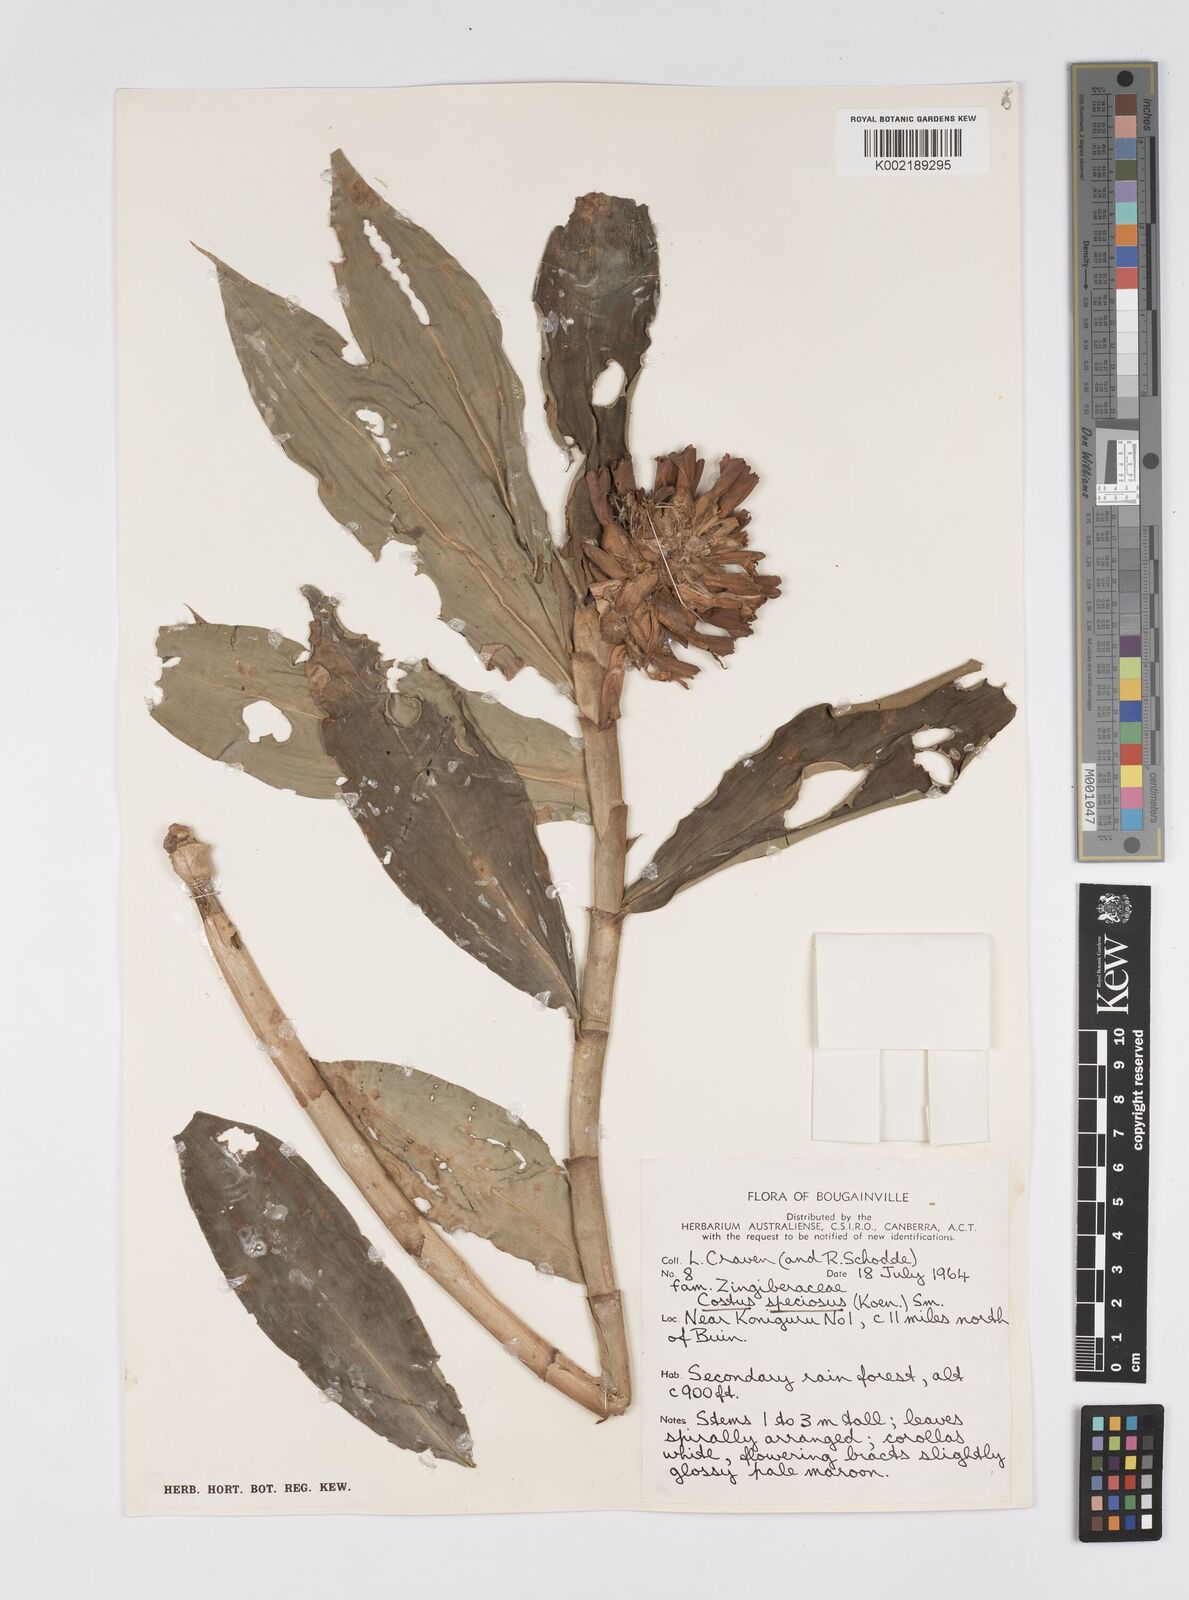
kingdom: Plantae
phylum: Tracheophyta
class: Liliopsida
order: Zingiberales
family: Costaceae
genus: Hellenia
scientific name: Hellenia speciosa
